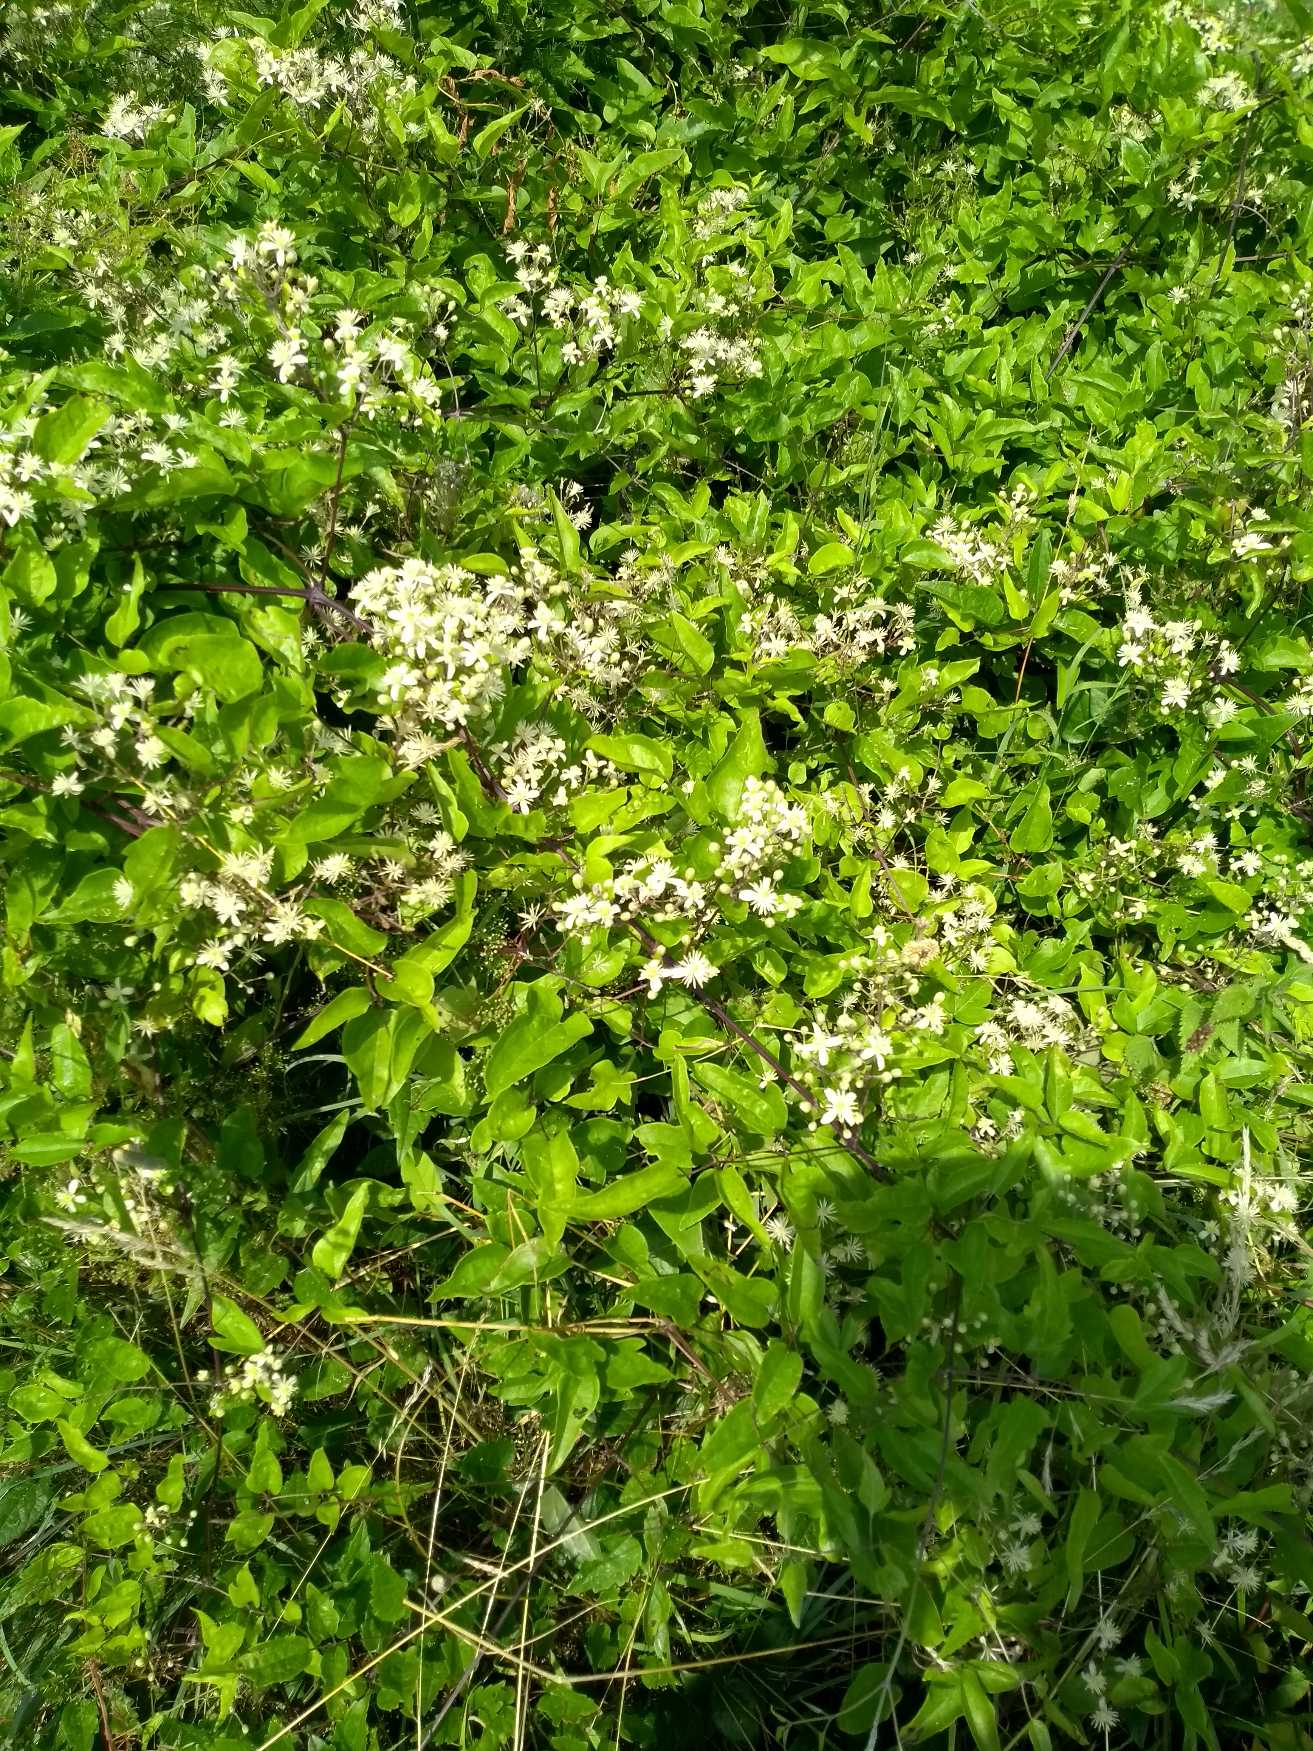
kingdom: Plantae
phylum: Tracheophyta
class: Magnoliopsida
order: Ranunculales
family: Ranunculaceae
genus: Clematis
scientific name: Clematis vitalba
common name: Skovranke
